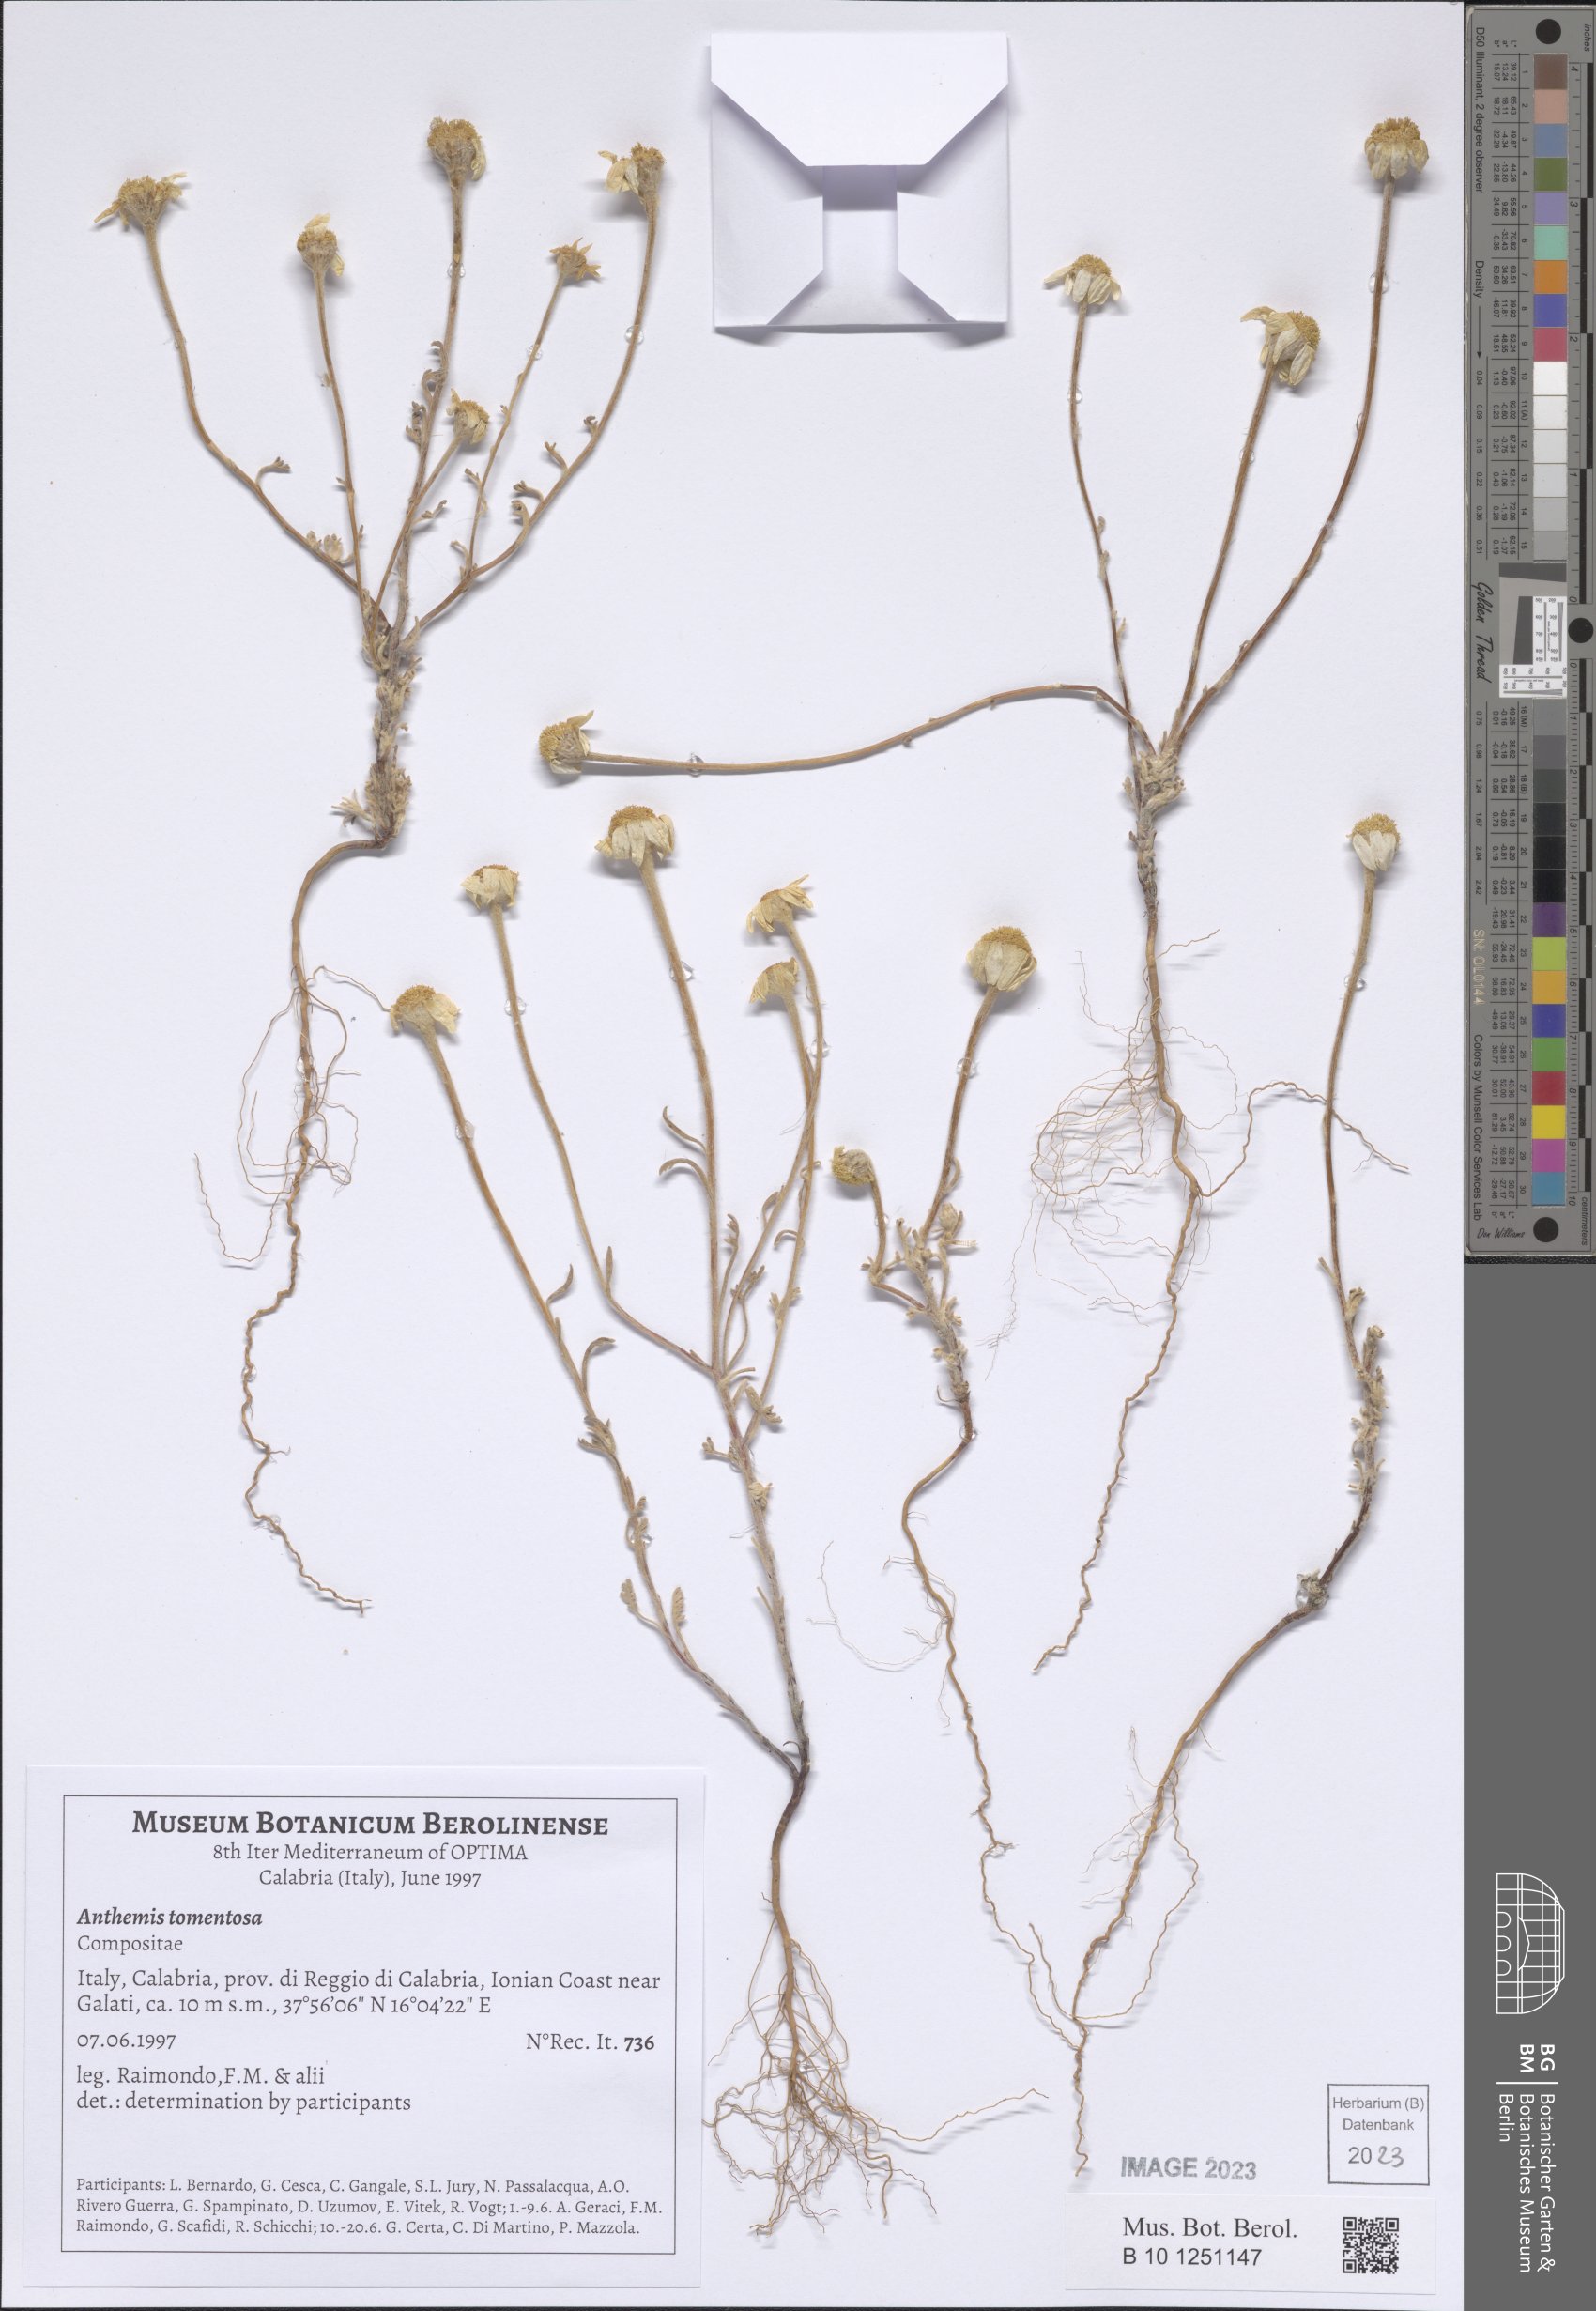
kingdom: Plantae
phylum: Tracheophyta
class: Magnoliopsida
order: Asterales
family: Asteraceae
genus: Anthemis
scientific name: Anthemis tomentosa
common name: Woolly chamomile
